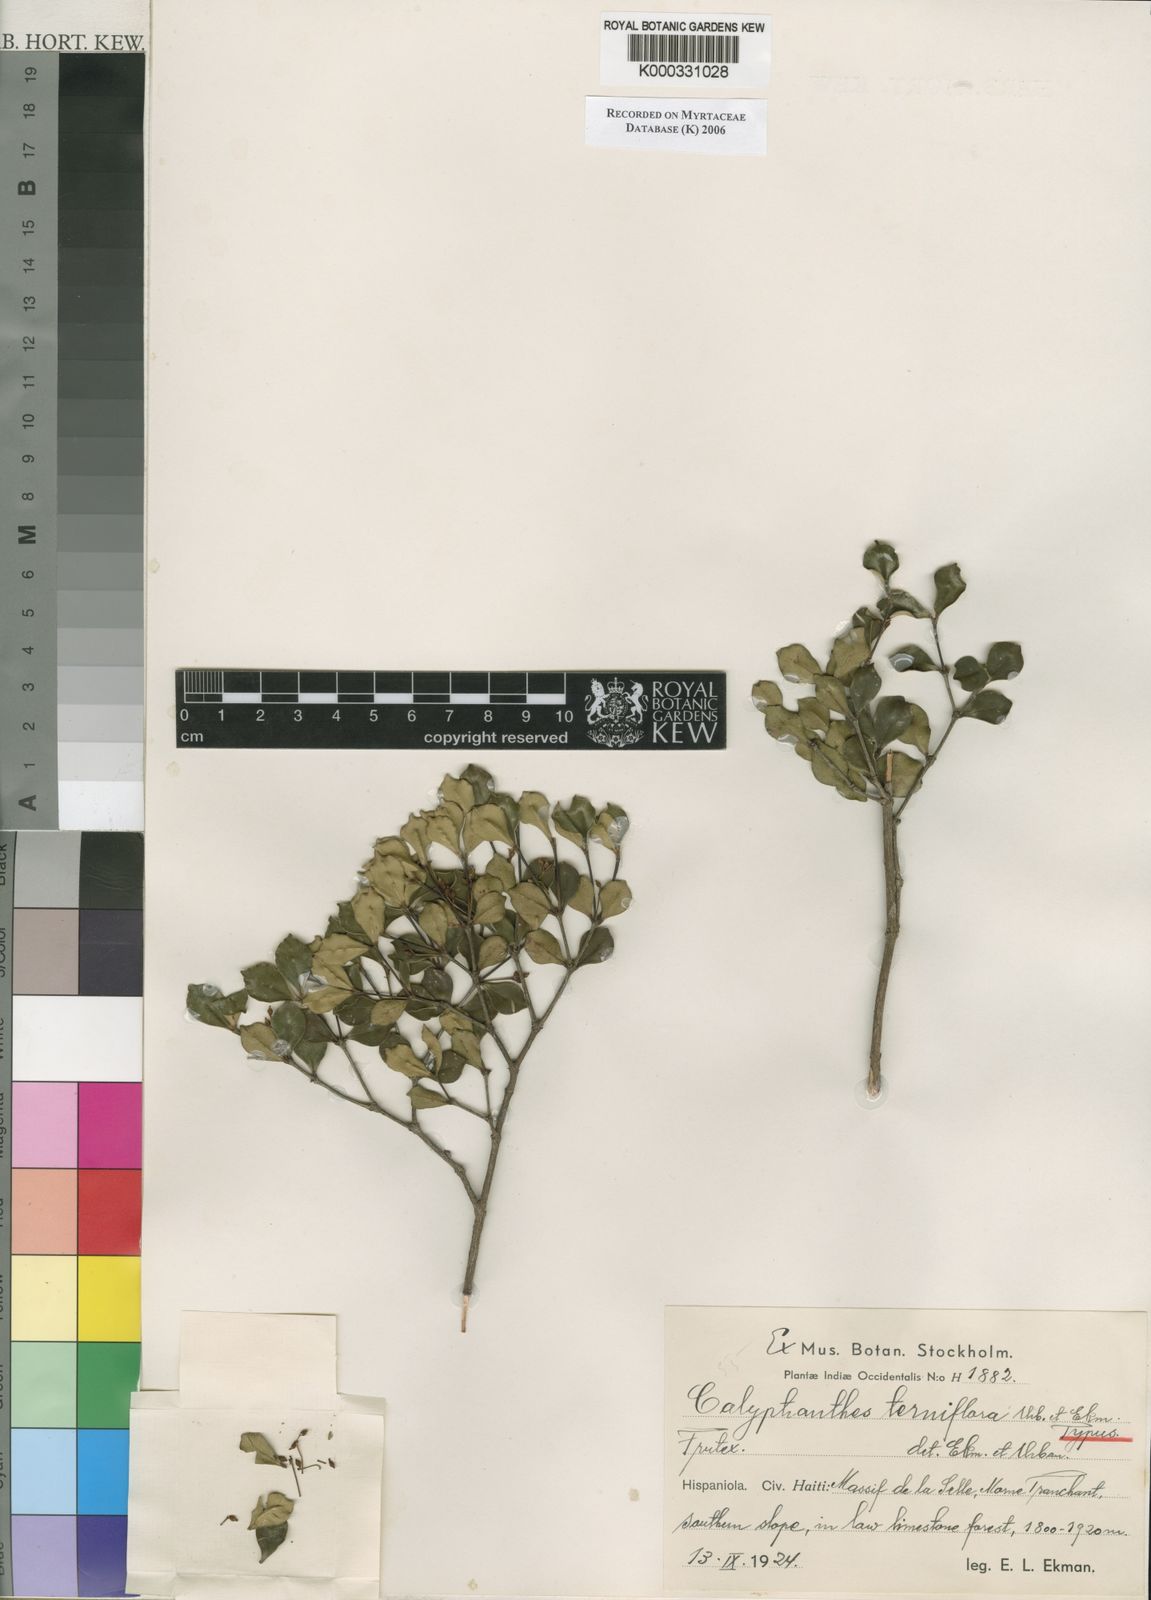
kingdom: Plantae
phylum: Tracheophyta
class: Magnoliopsida
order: Myrtales
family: Myrtaceae
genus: Myrcia
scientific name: Myrcia terniflora
